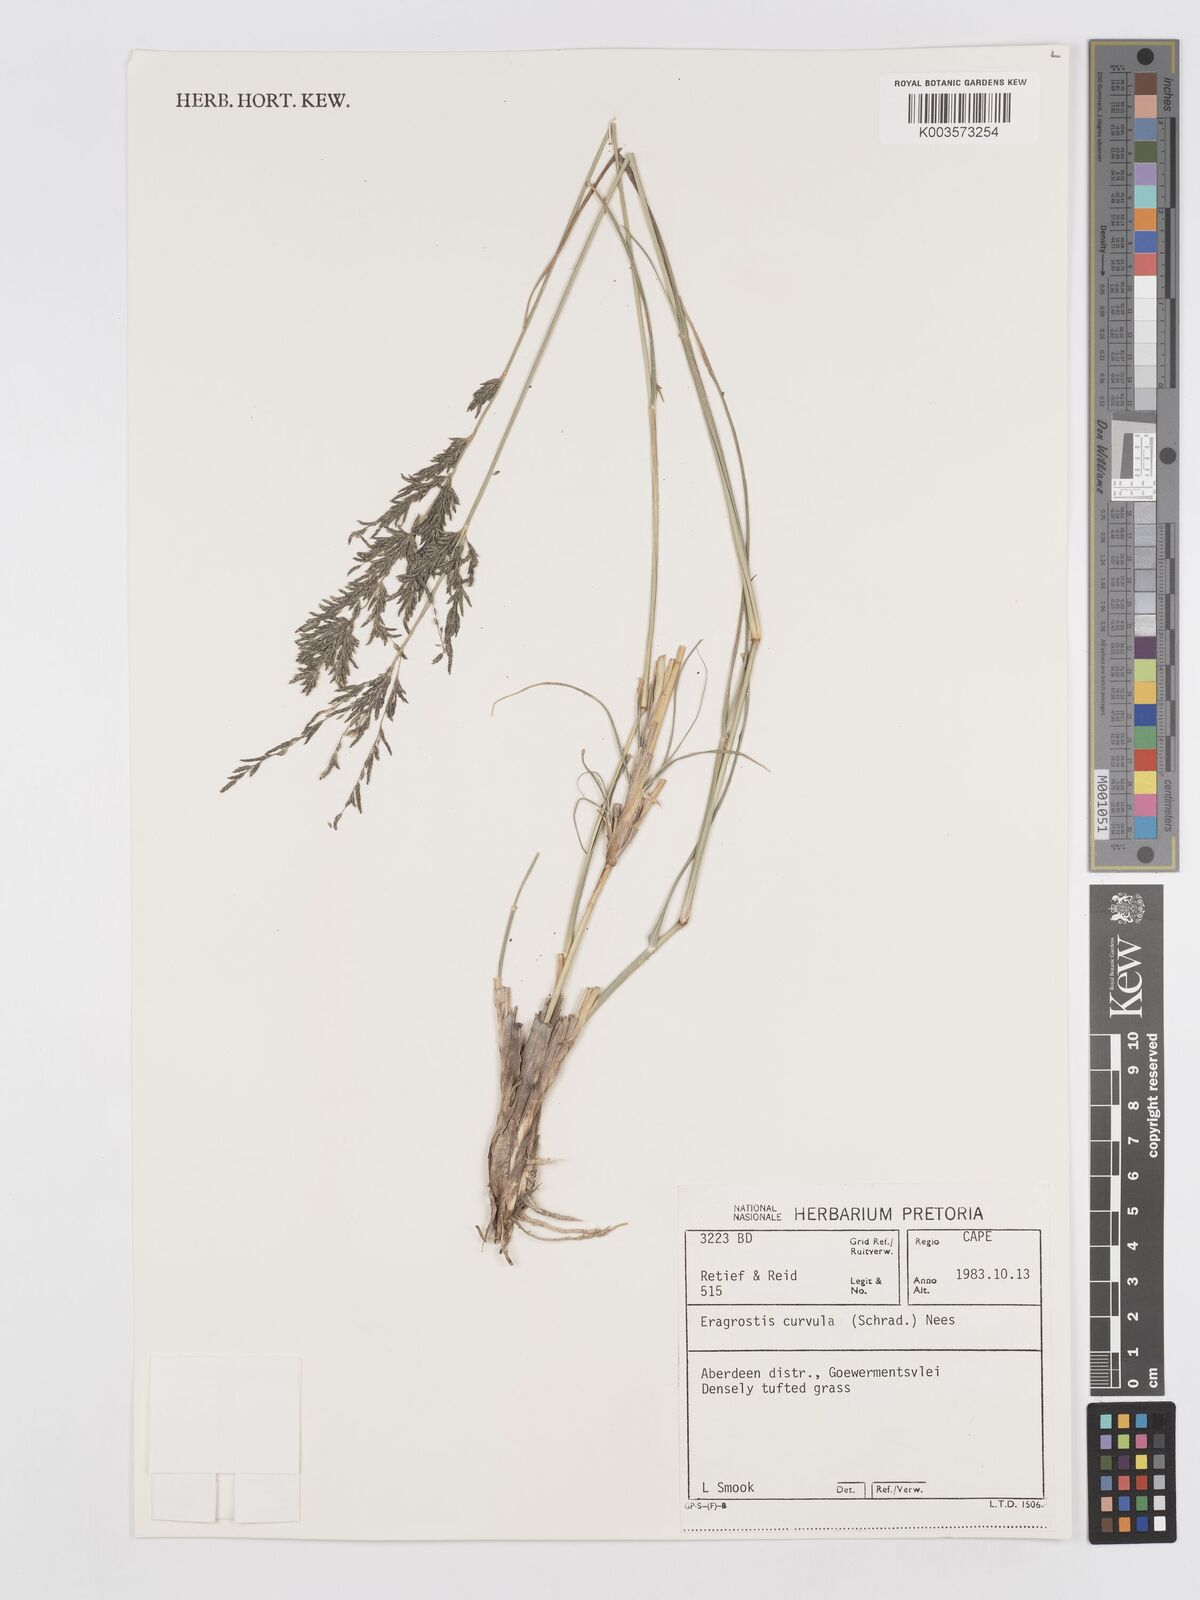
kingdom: Plantae
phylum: Tracheophyta
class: Liliopsida
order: Poales
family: Poaceae
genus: Eragrostis
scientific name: Eragrostis curvula
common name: African love-grass
